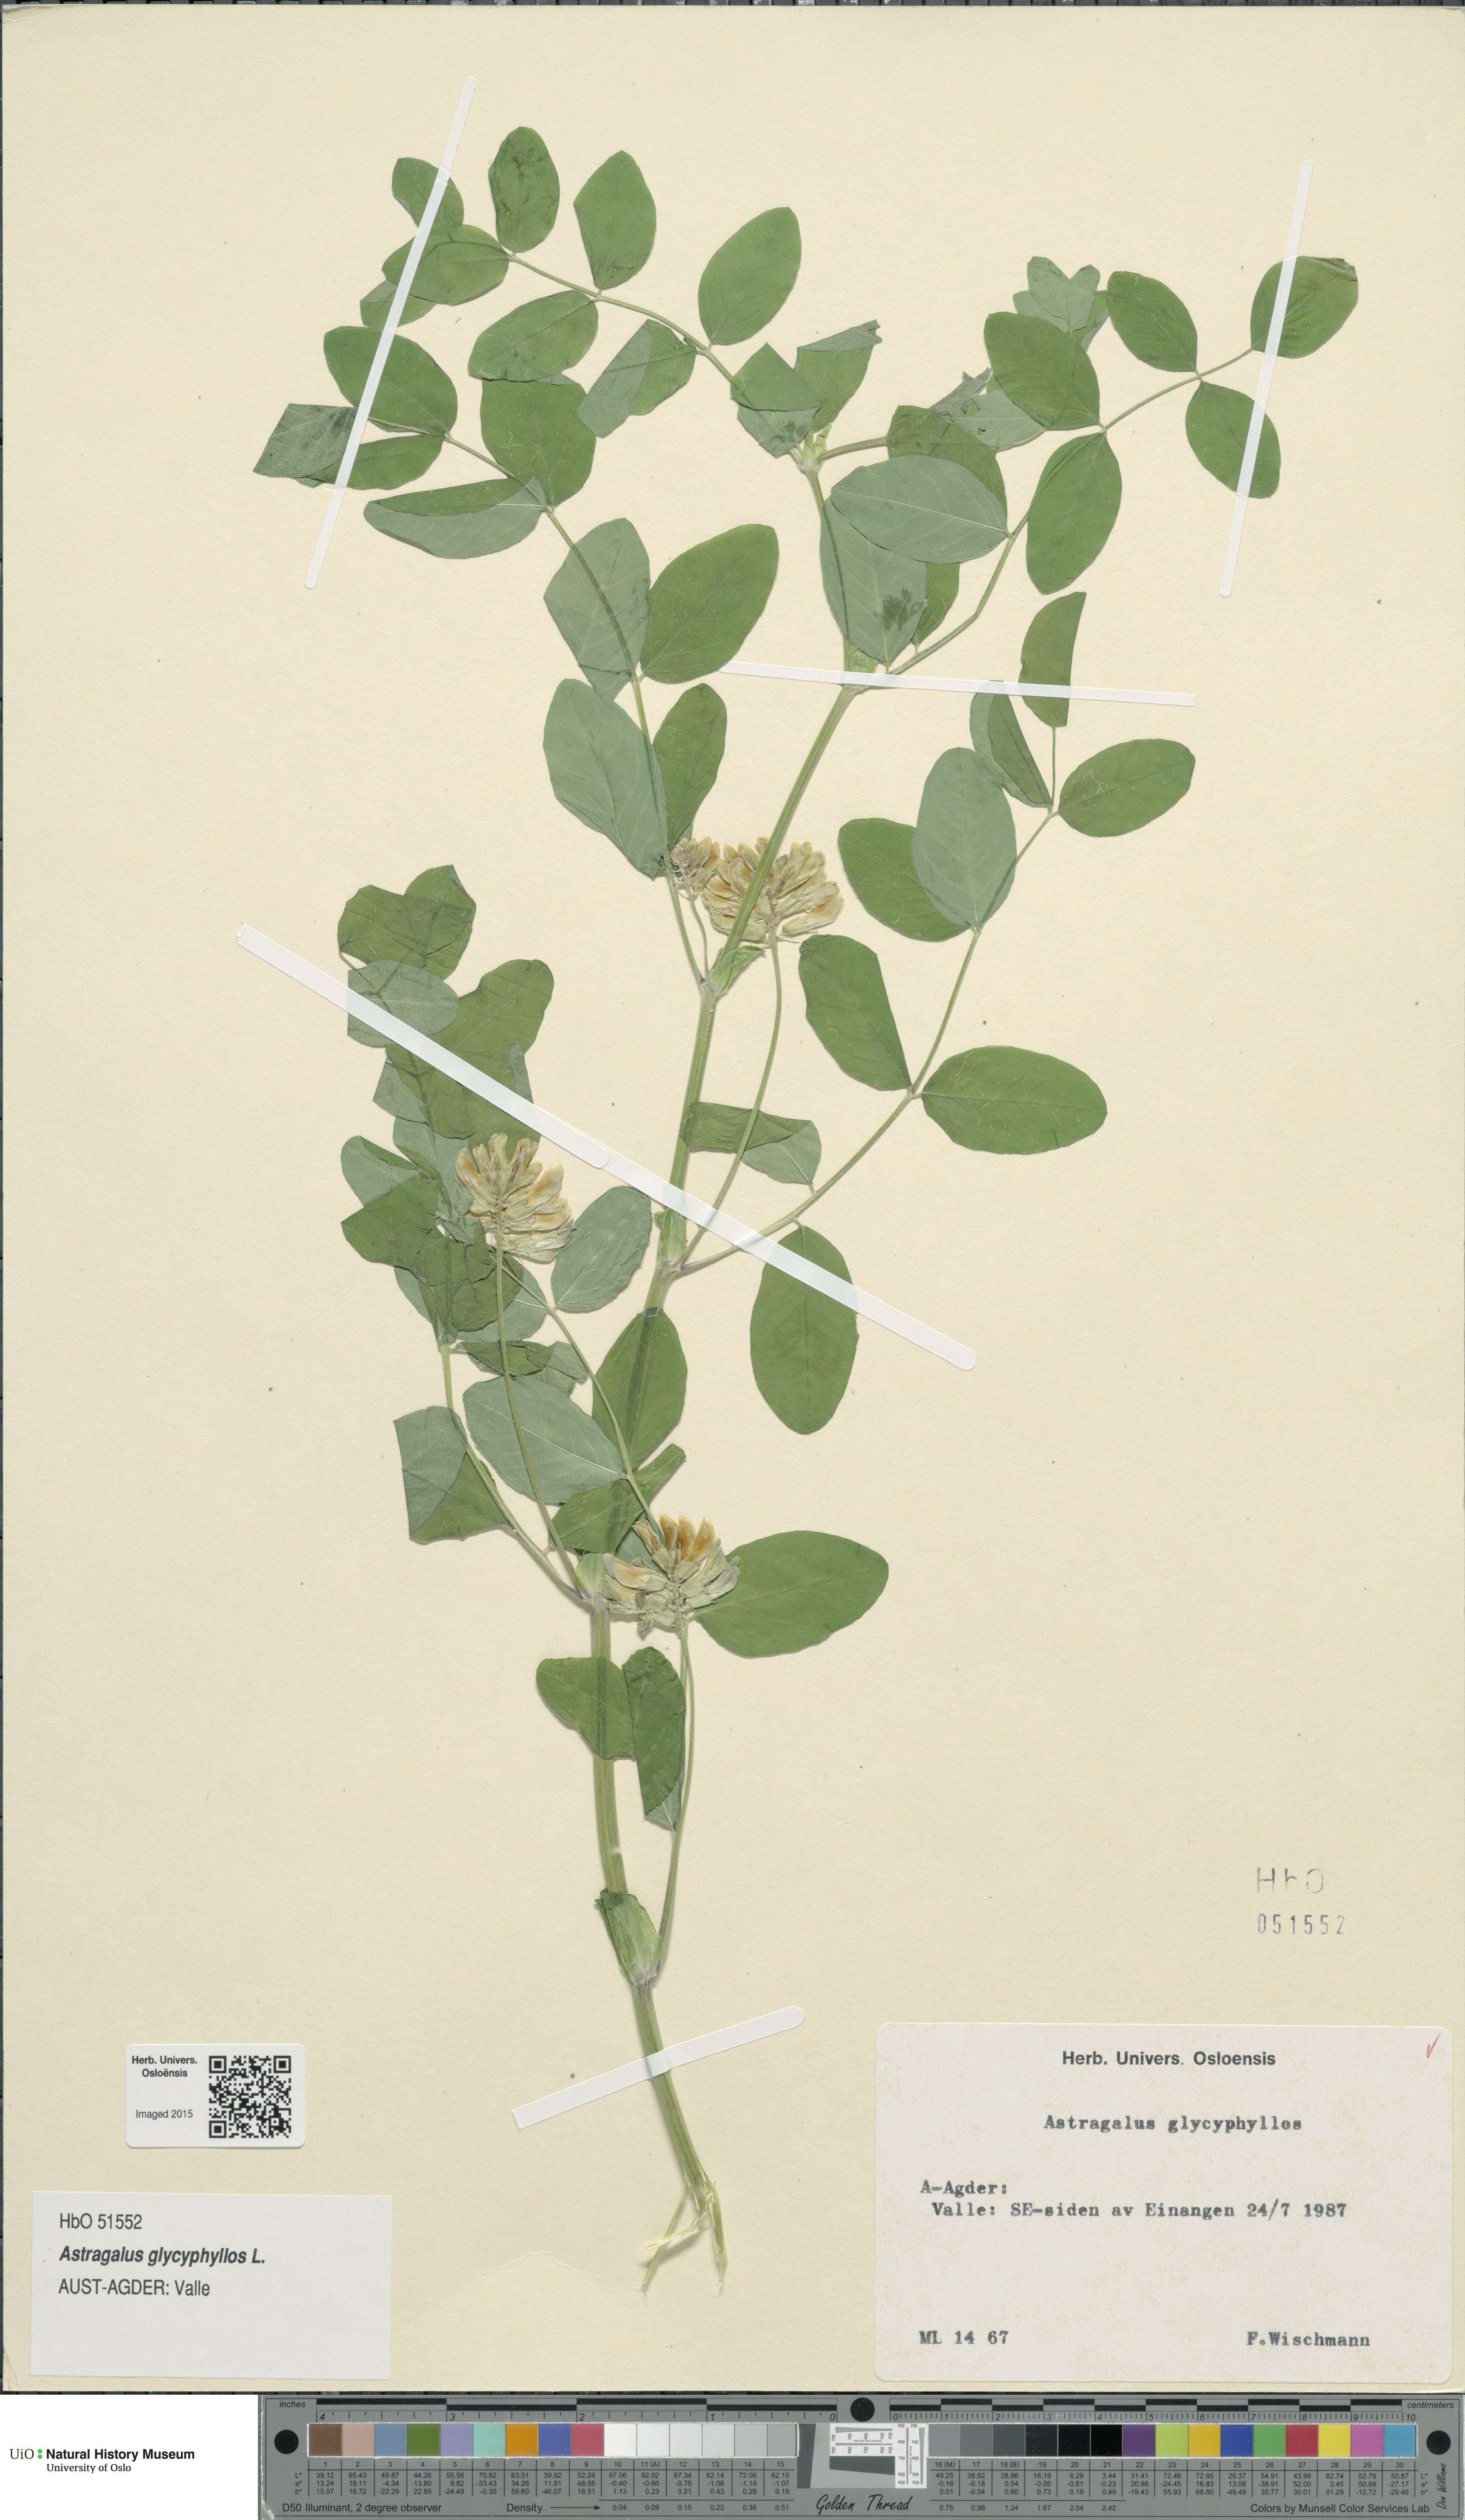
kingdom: Plantae
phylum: Tracheophyta
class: Magnoliopsida
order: Fabales
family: Fabaceae
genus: Astragalus
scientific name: Astragalus glycyphyllos
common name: Wild liquorice
